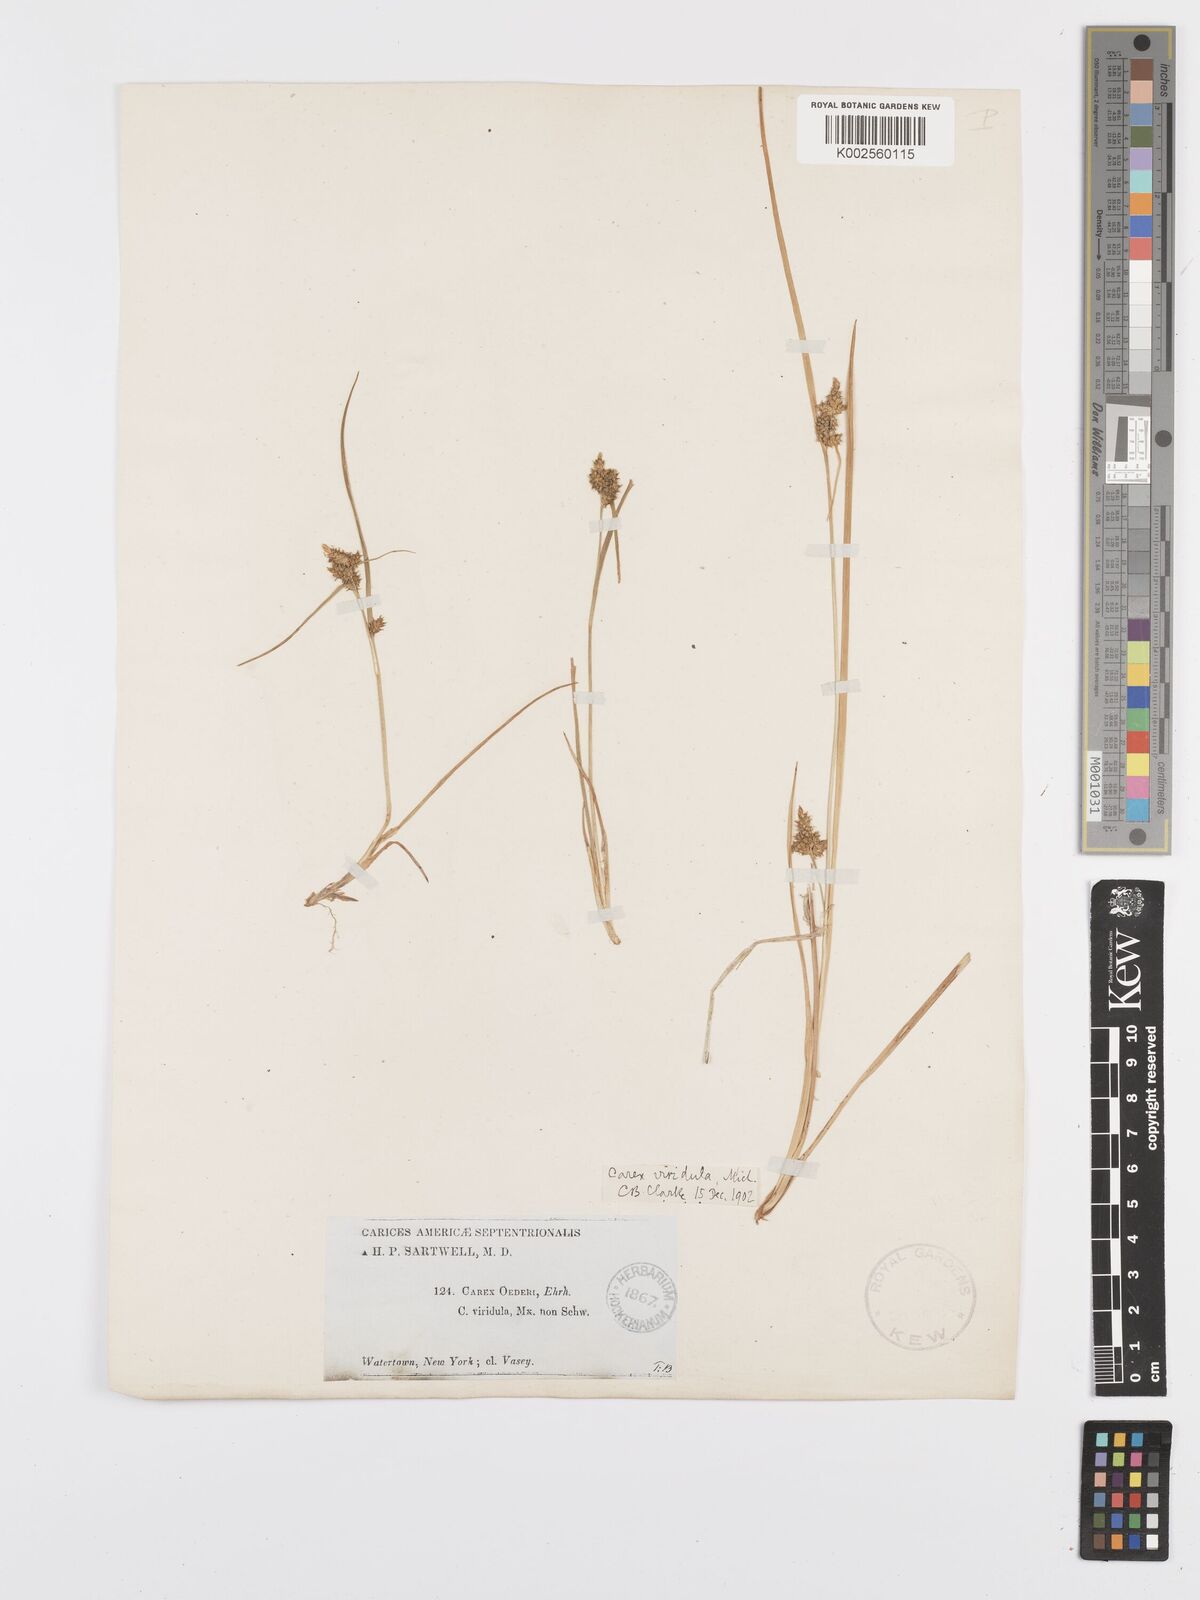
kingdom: Plantae
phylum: Tracheophyta
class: Liliopsida
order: Poales
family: Cyperaceae
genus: Carex
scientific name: Carex oederi
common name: Common & small-fruited yellow-sedge
